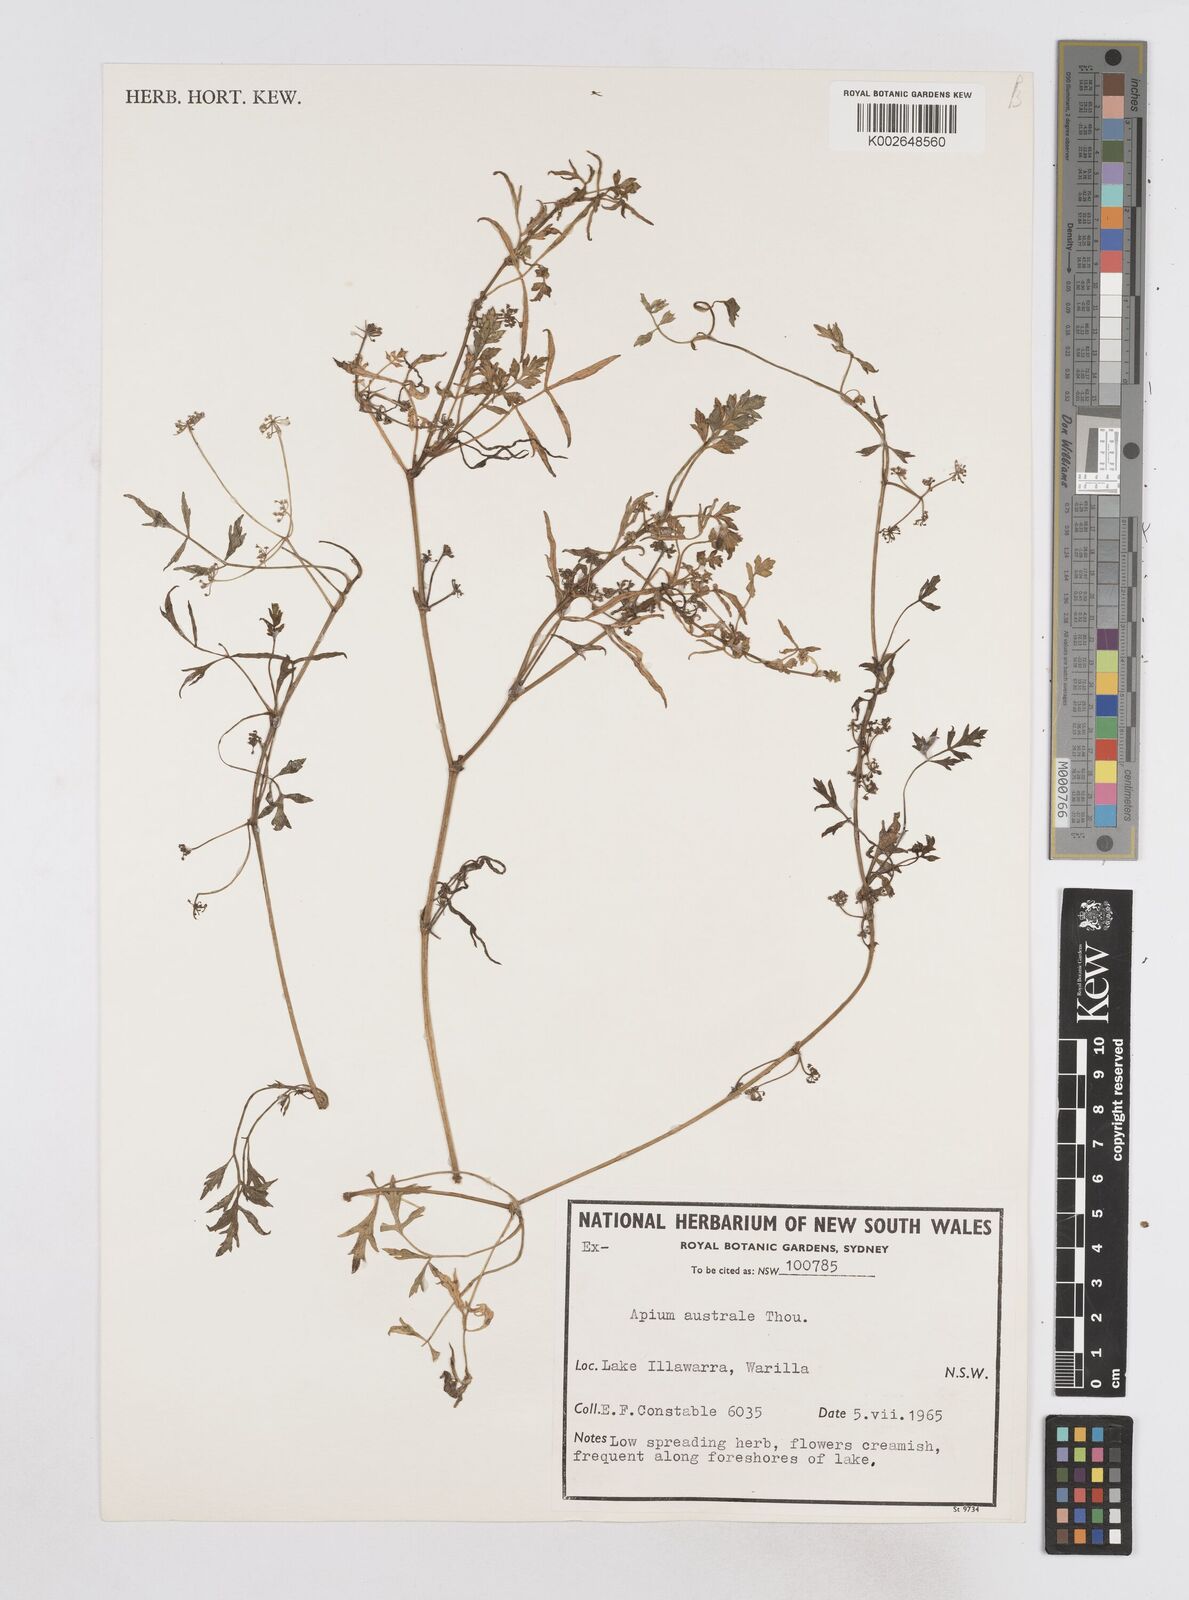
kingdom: Plantae
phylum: Tracheophyta
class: Magnoliopsida
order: Apiales
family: Apiaceae
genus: Apium
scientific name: Apium prostratum
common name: Prostrate marshwort
